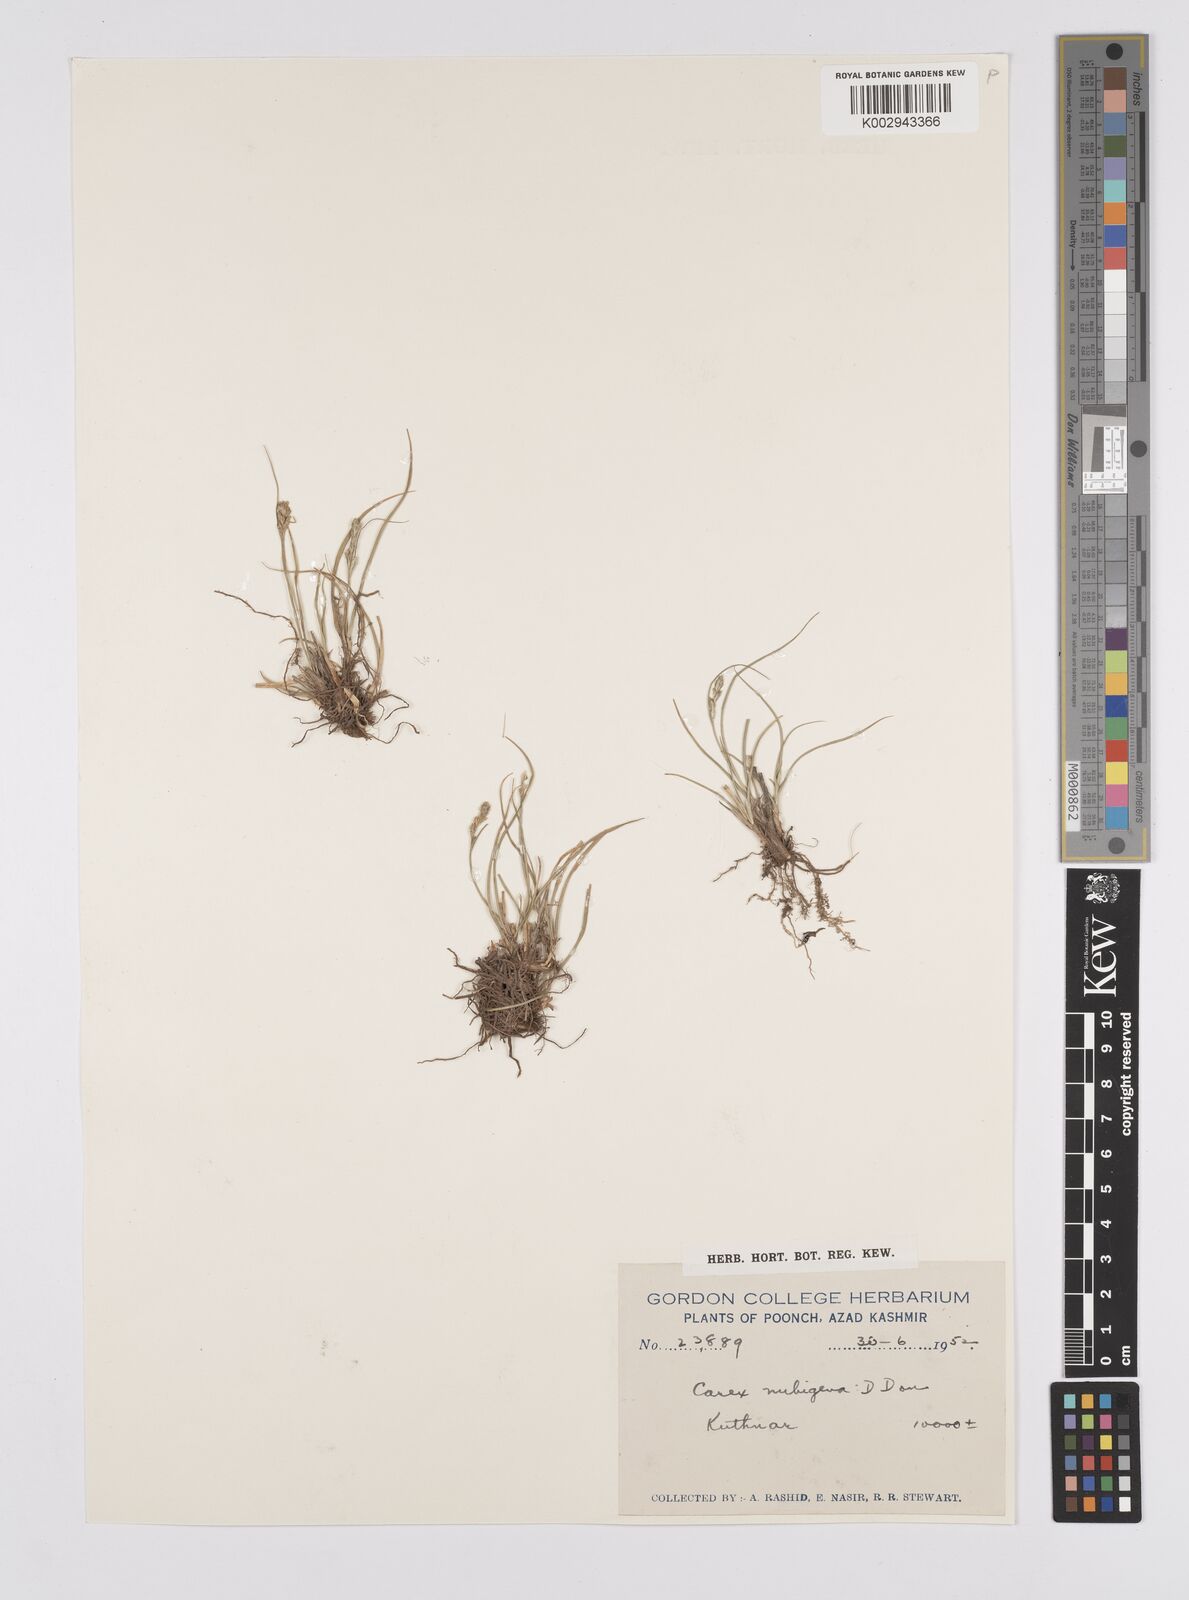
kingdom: Plantae
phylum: Tracheophyta
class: Liliopsida
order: Poales
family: Cyperaceae
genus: Carex
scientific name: Carex nubigena
